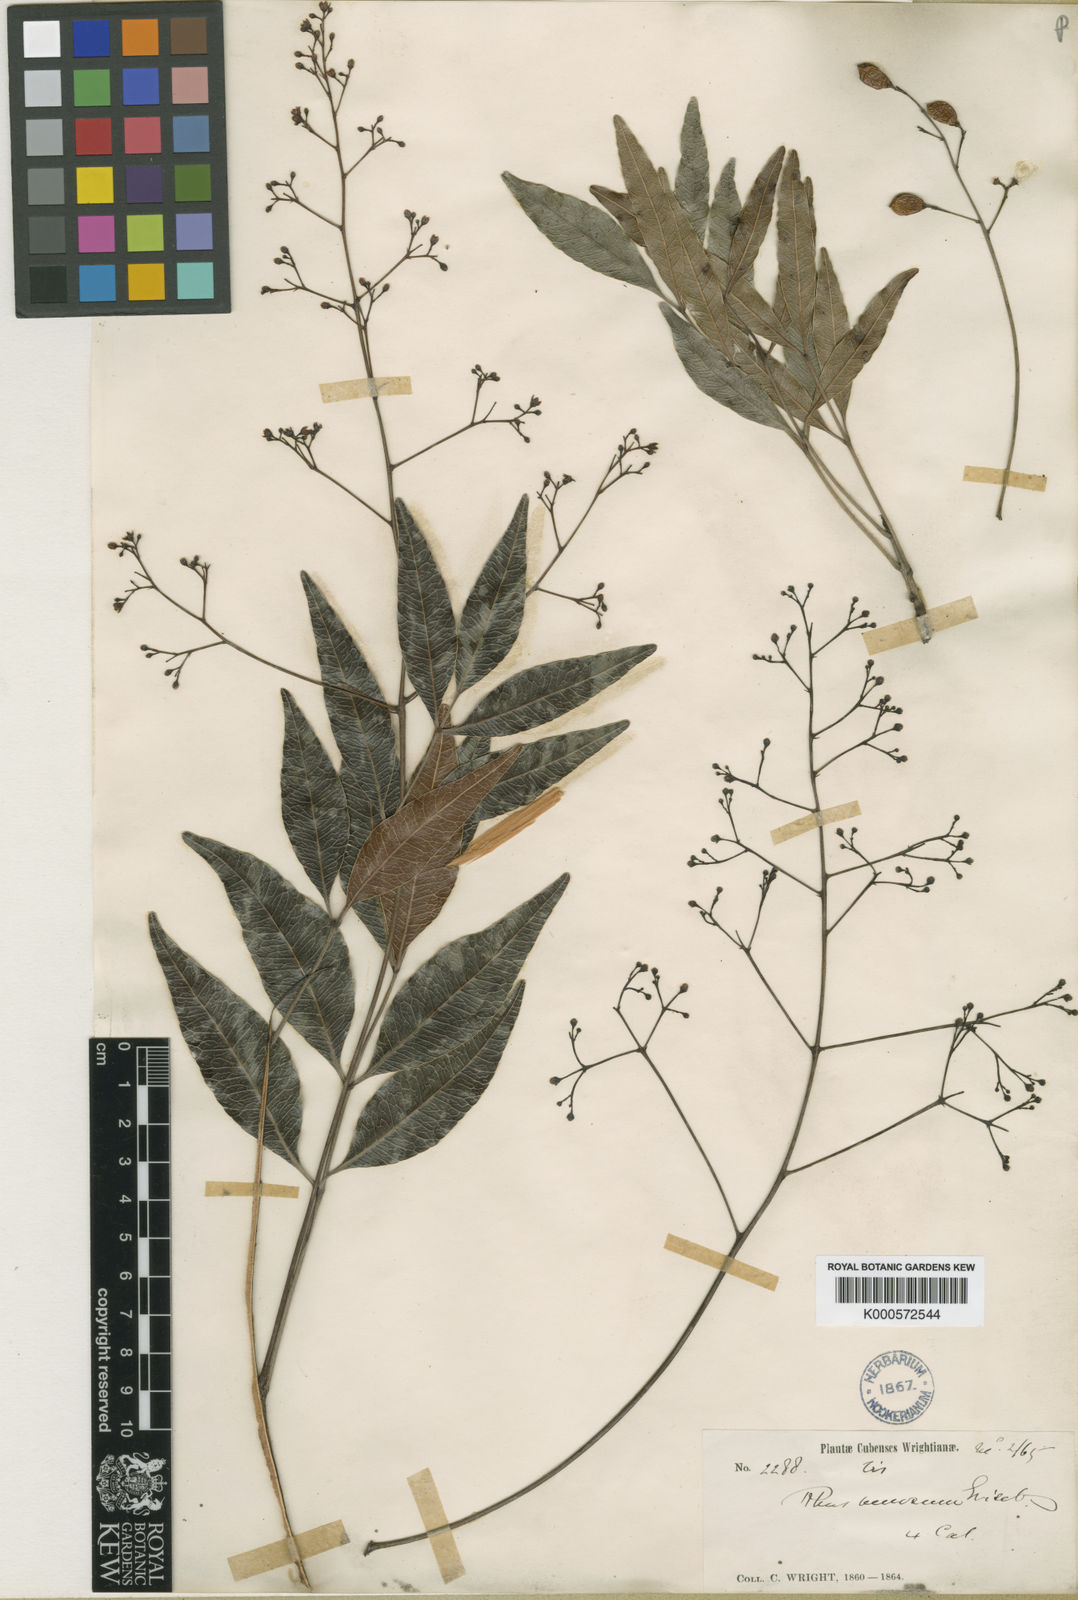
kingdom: Plantae
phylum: Tracheophyta
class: Magnoliopsida
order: Sapindales
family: Anacardiaceae
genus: Metopium
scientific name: Metopium venosum
